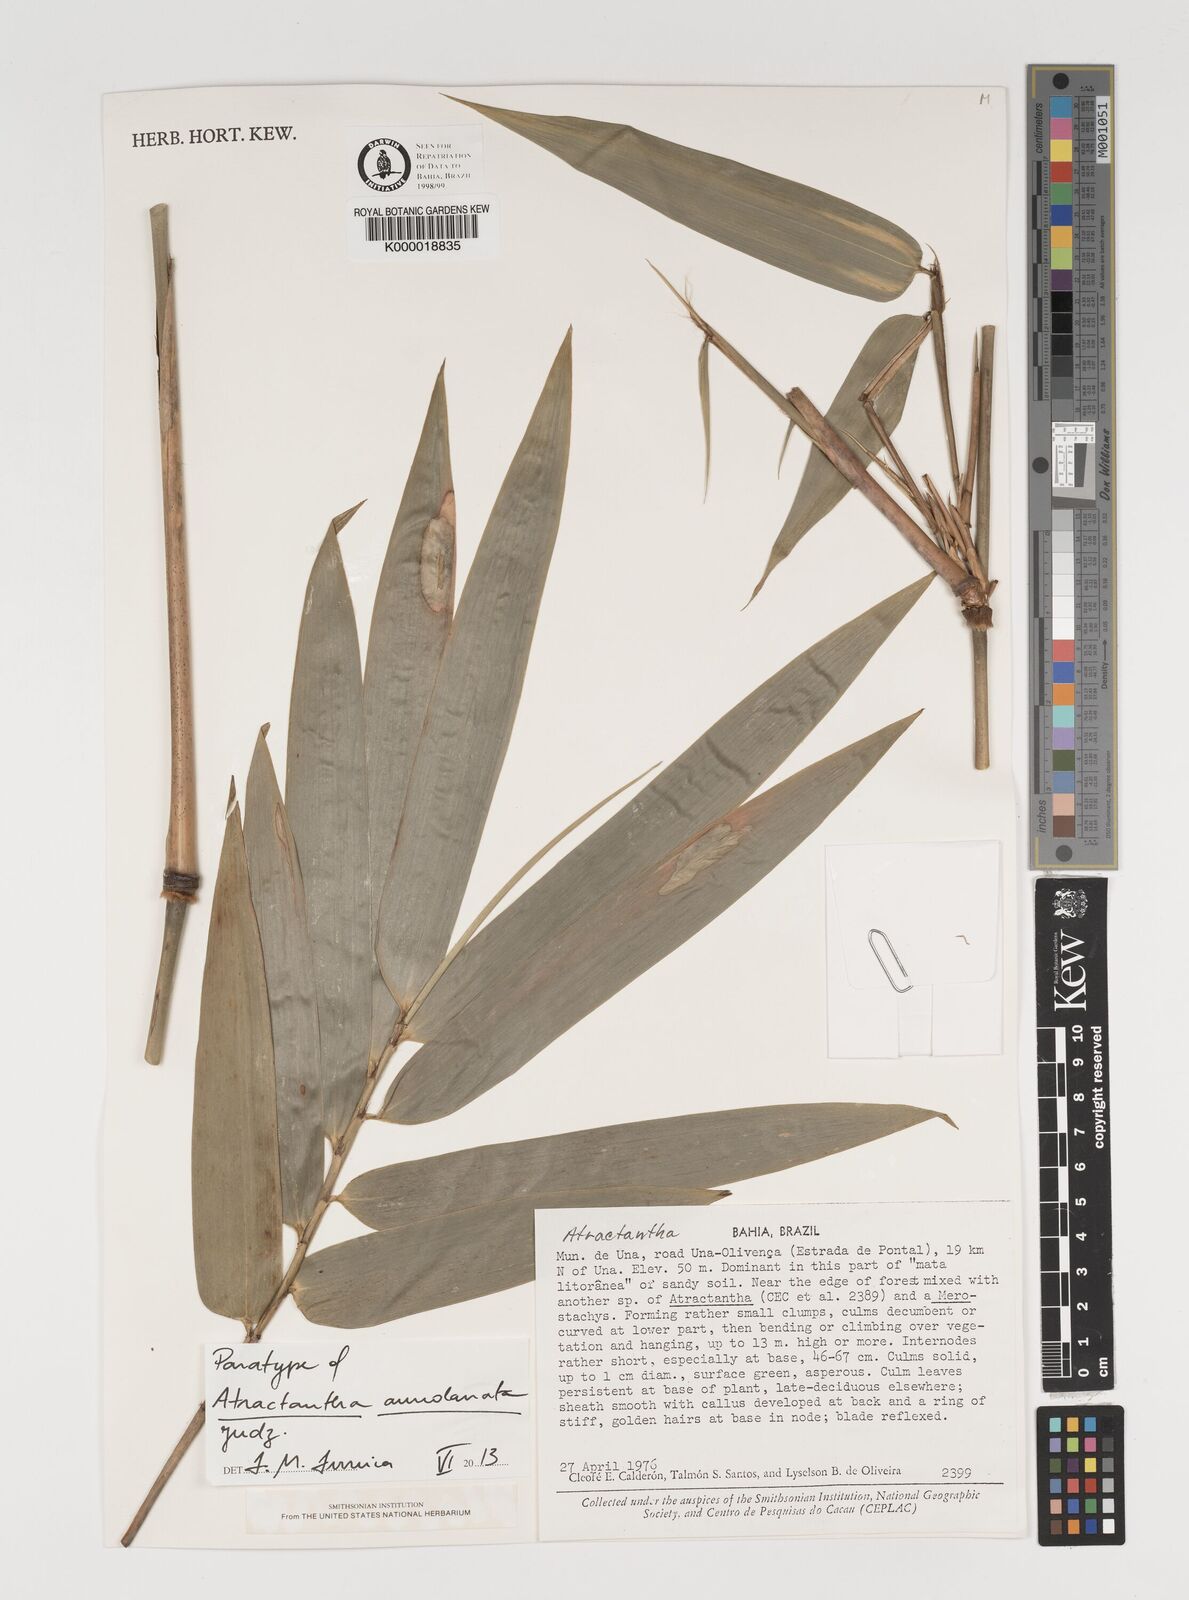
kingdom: Plantae
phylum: Tracheophyta
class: Liliopsida
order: Poales
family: Poaceae
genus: Atractantha
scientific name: Atractantha aureolanata
